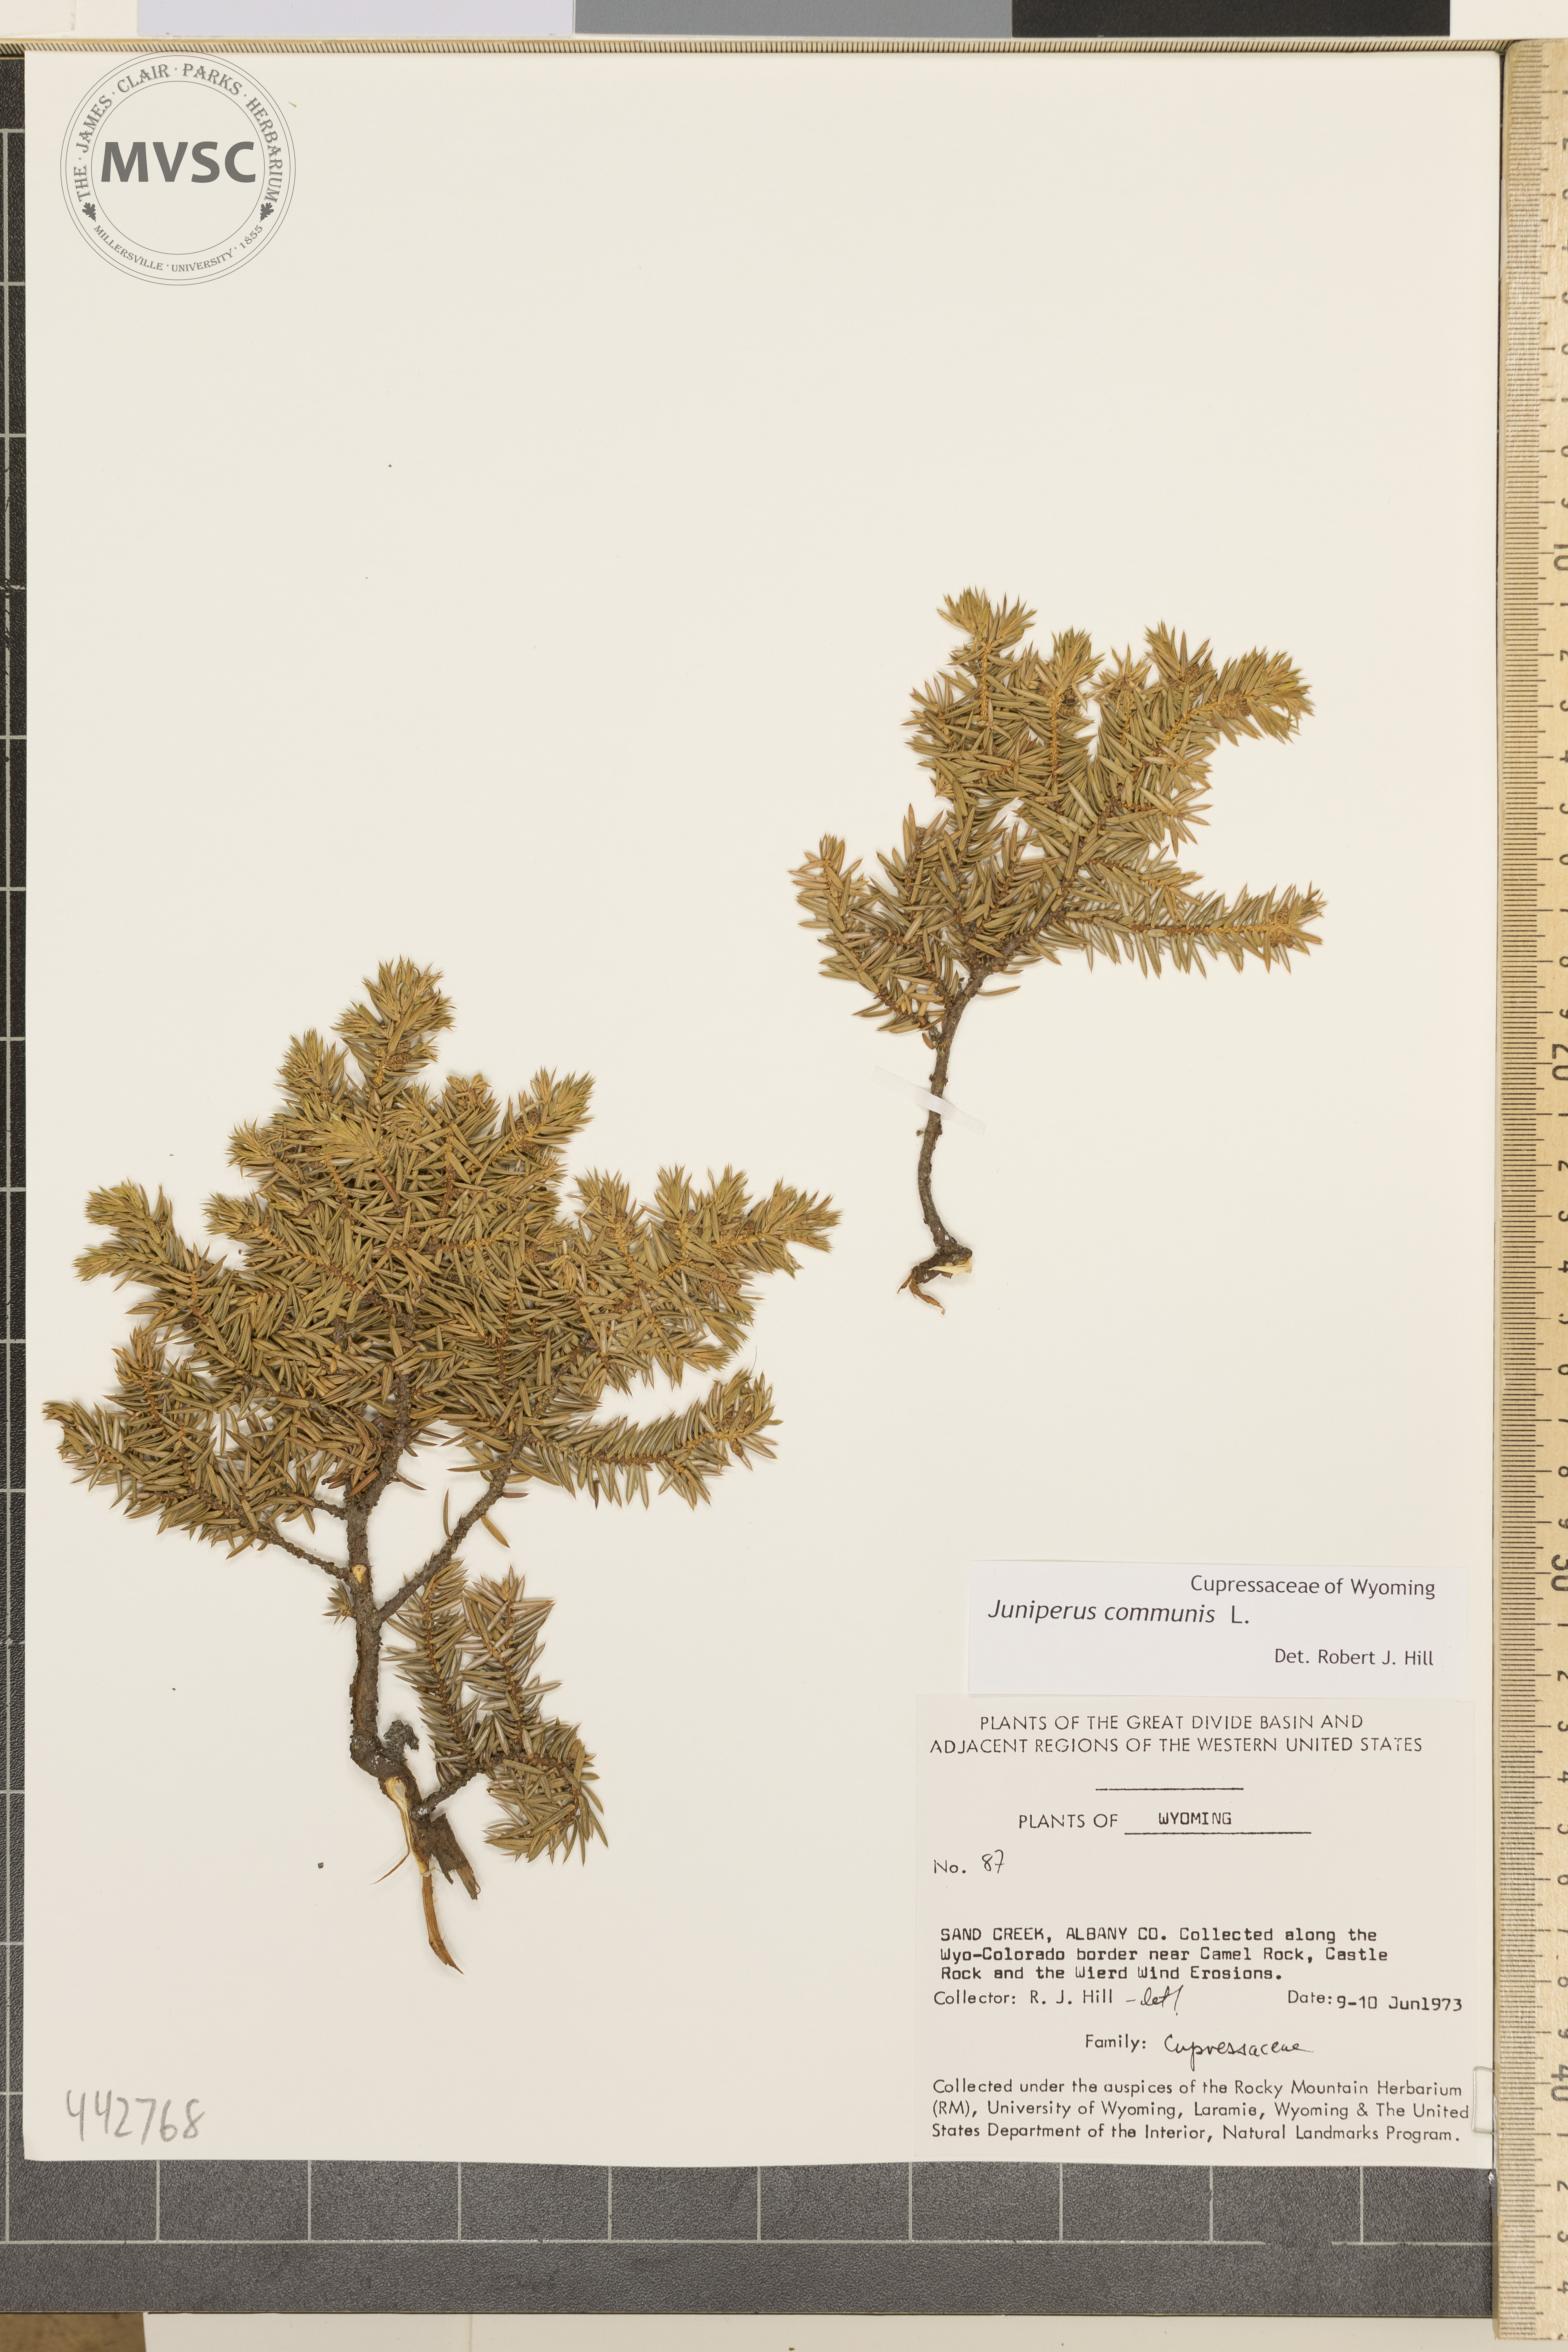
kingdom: Plantae
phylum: Tracheophyta
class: Pinopsida
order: Pinales
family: Cupressaceae
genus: Juniperus
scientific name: Juniperus communis
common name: Common juniper
